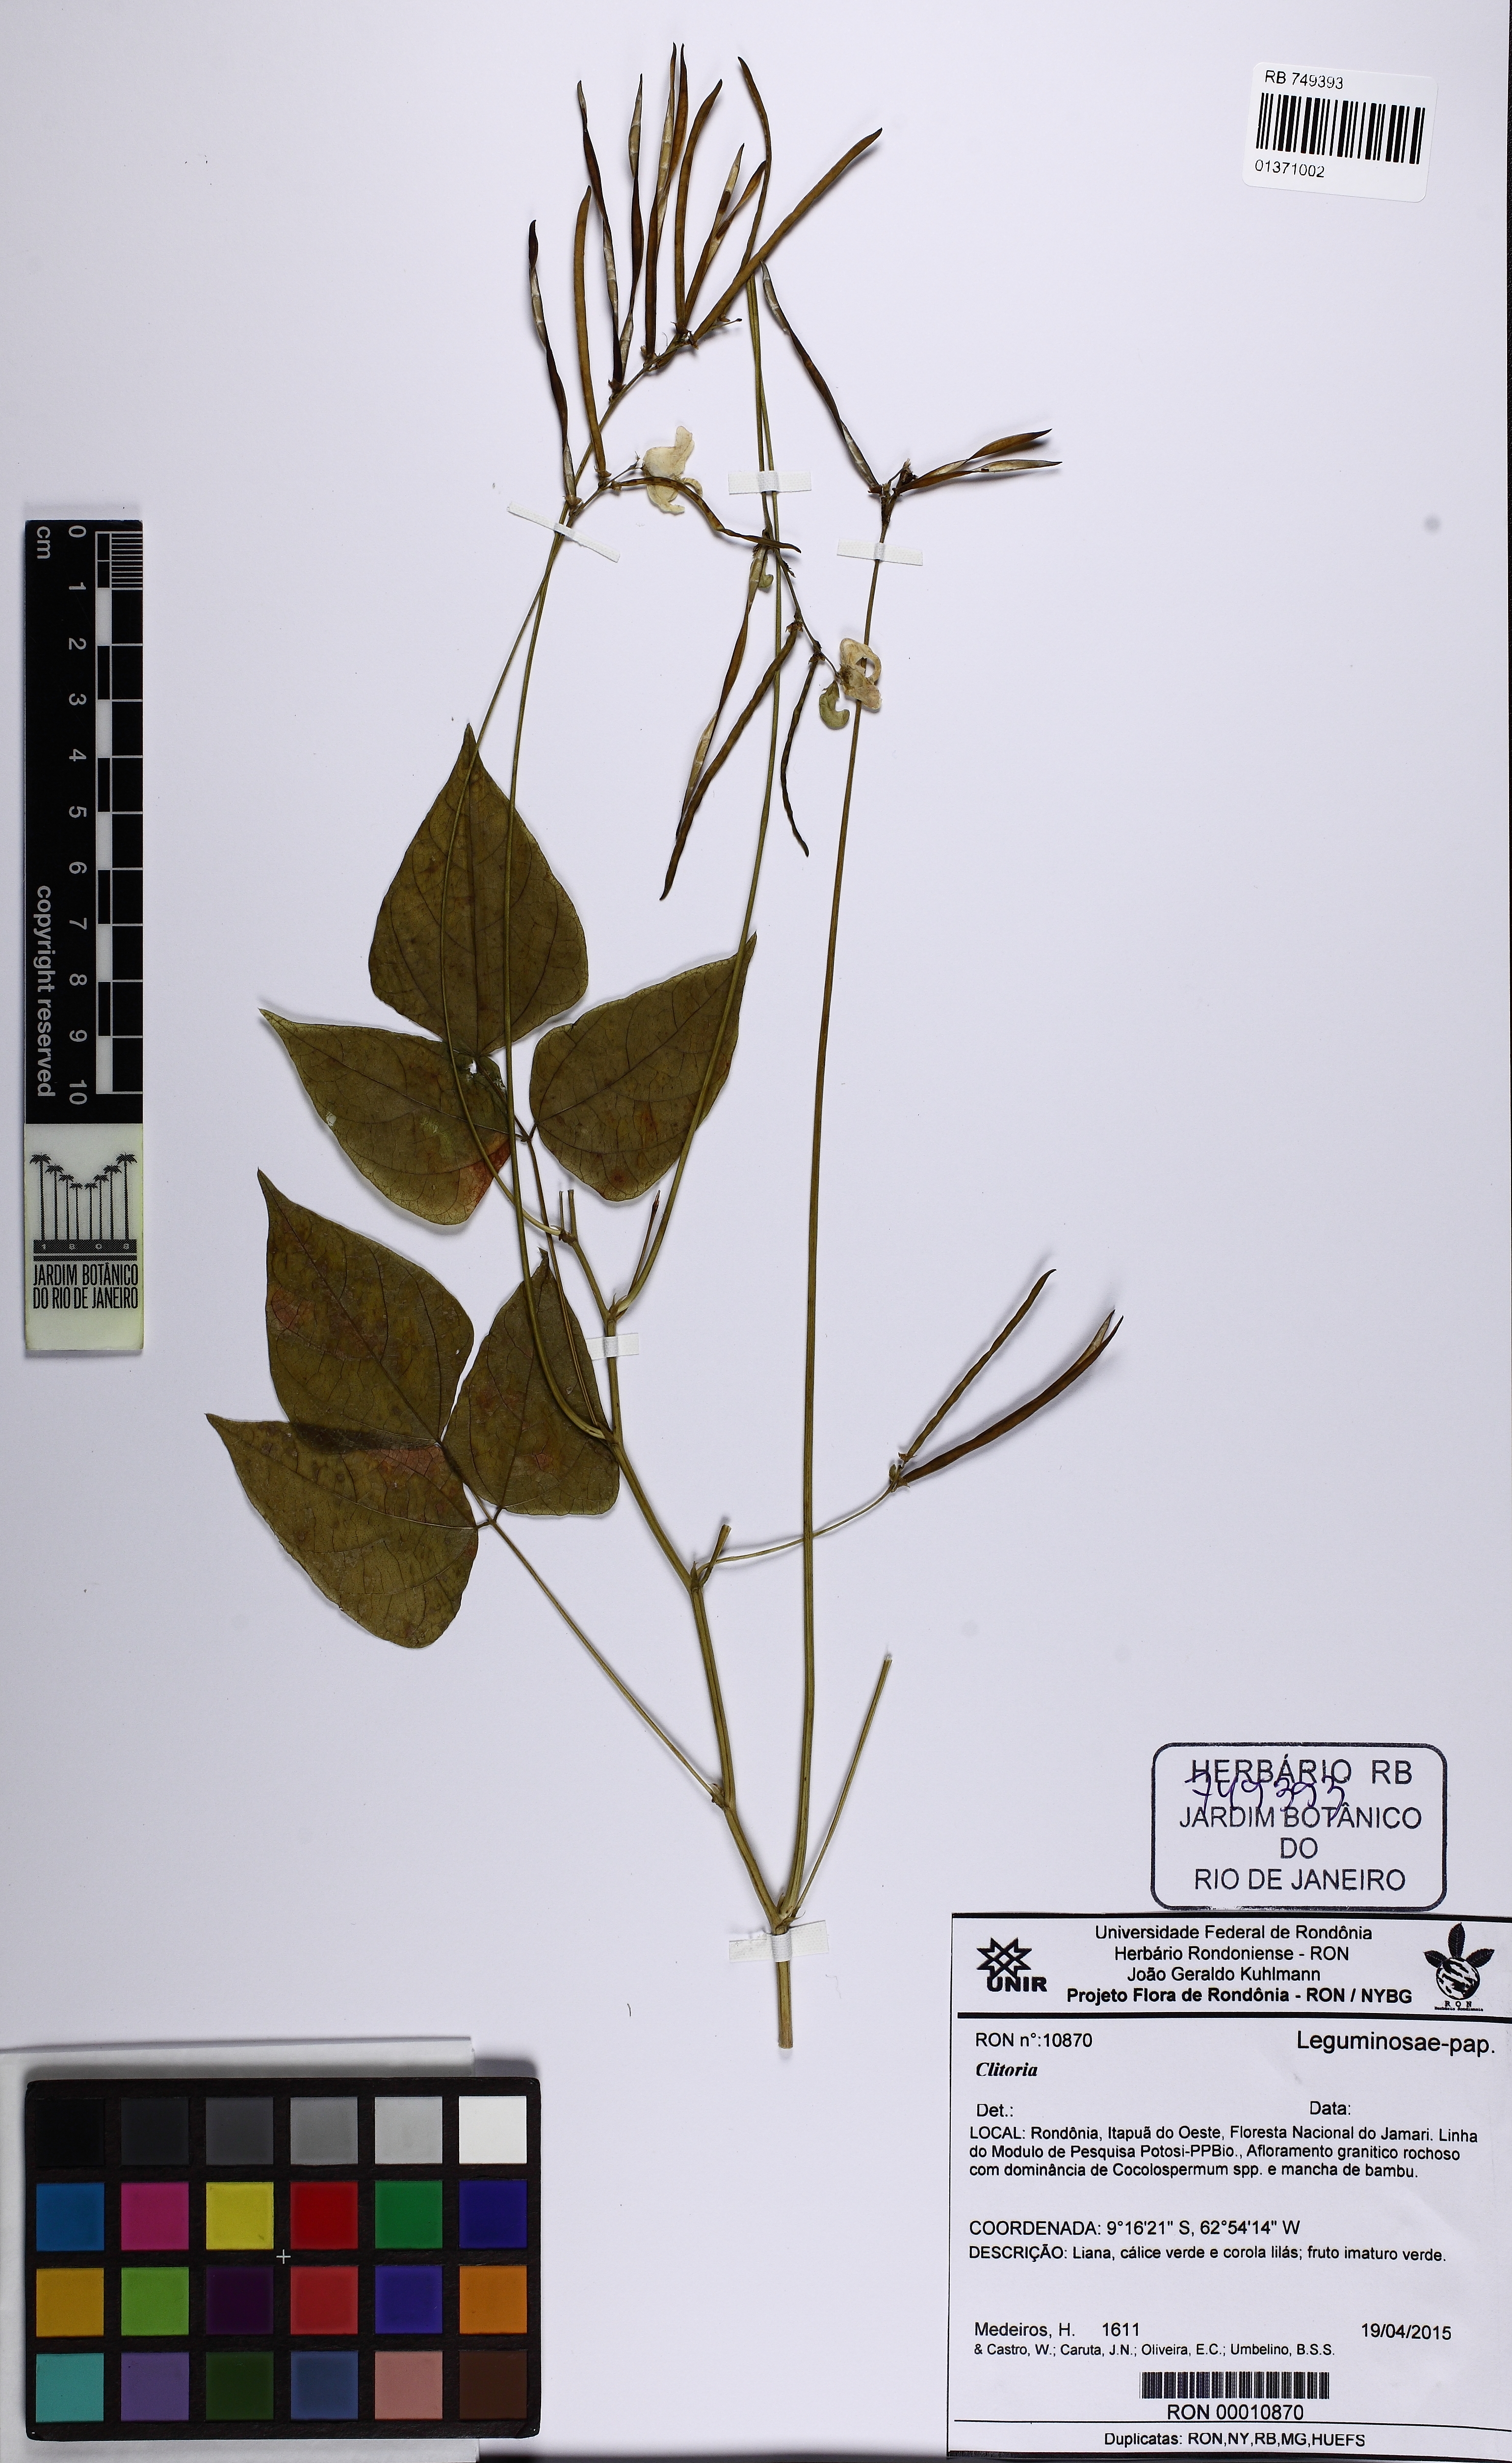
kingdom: Plantae
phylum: Tracheophyta
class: Magnoliopsida
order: Fabales
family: Fabaceae
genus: Macroptilium
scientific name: Macroptilium
